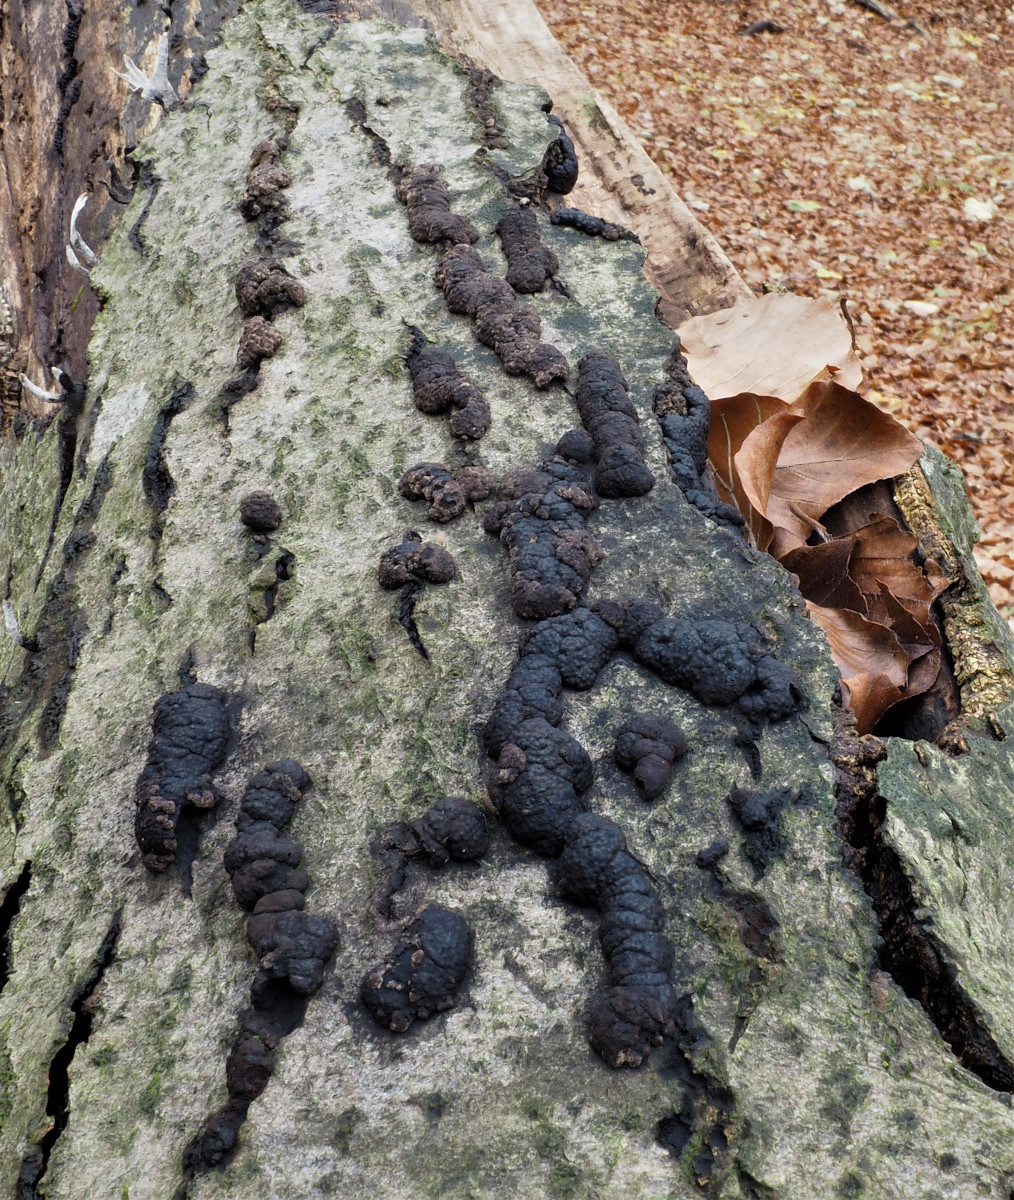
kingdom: Fungi
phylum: Ascomycota
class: Sordariomycetes
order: Xylariales
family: Hypoxylaceae
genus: Jackrogersella
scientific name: Jackrogersella cohaerens
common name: sammenflydende kulbær
